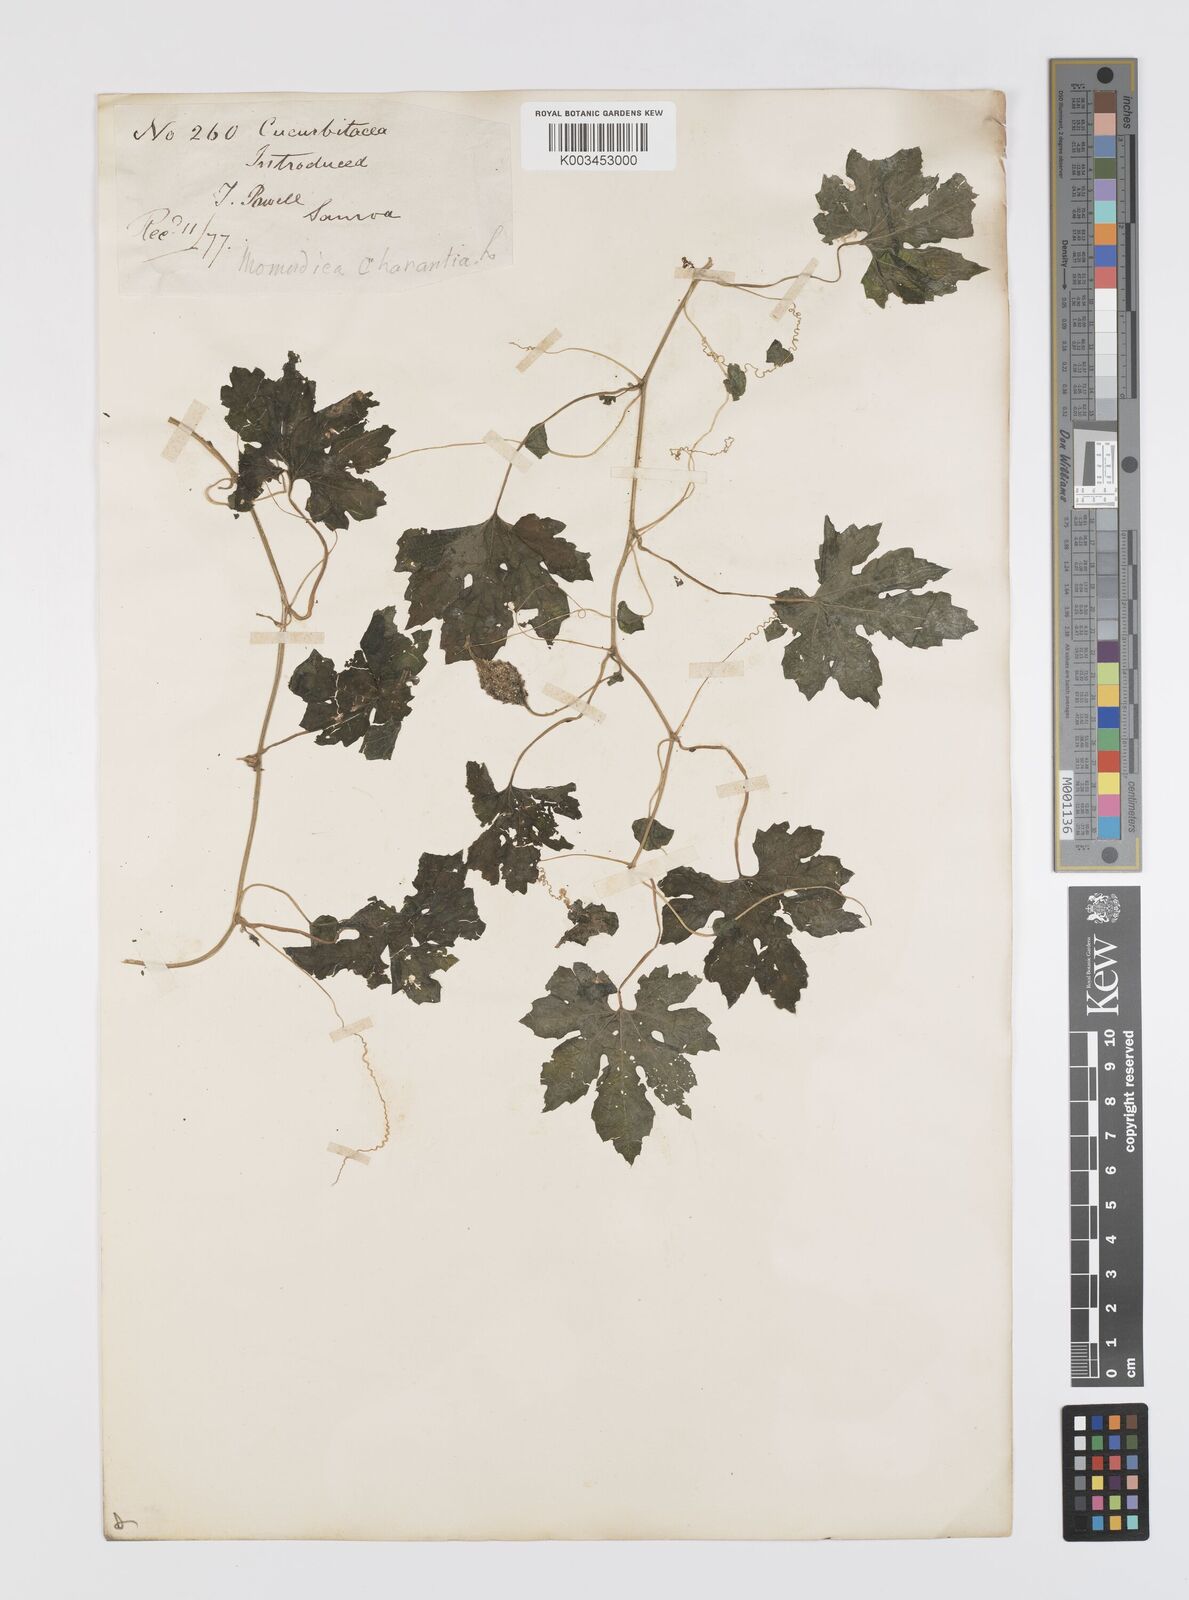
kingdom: Plantae
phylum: Tracheophyta
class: Magnoliopsida
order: Cucurbitales
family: Cucurbitaceae
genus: Momordica
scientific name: Momordica charantia
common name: Balsampear
